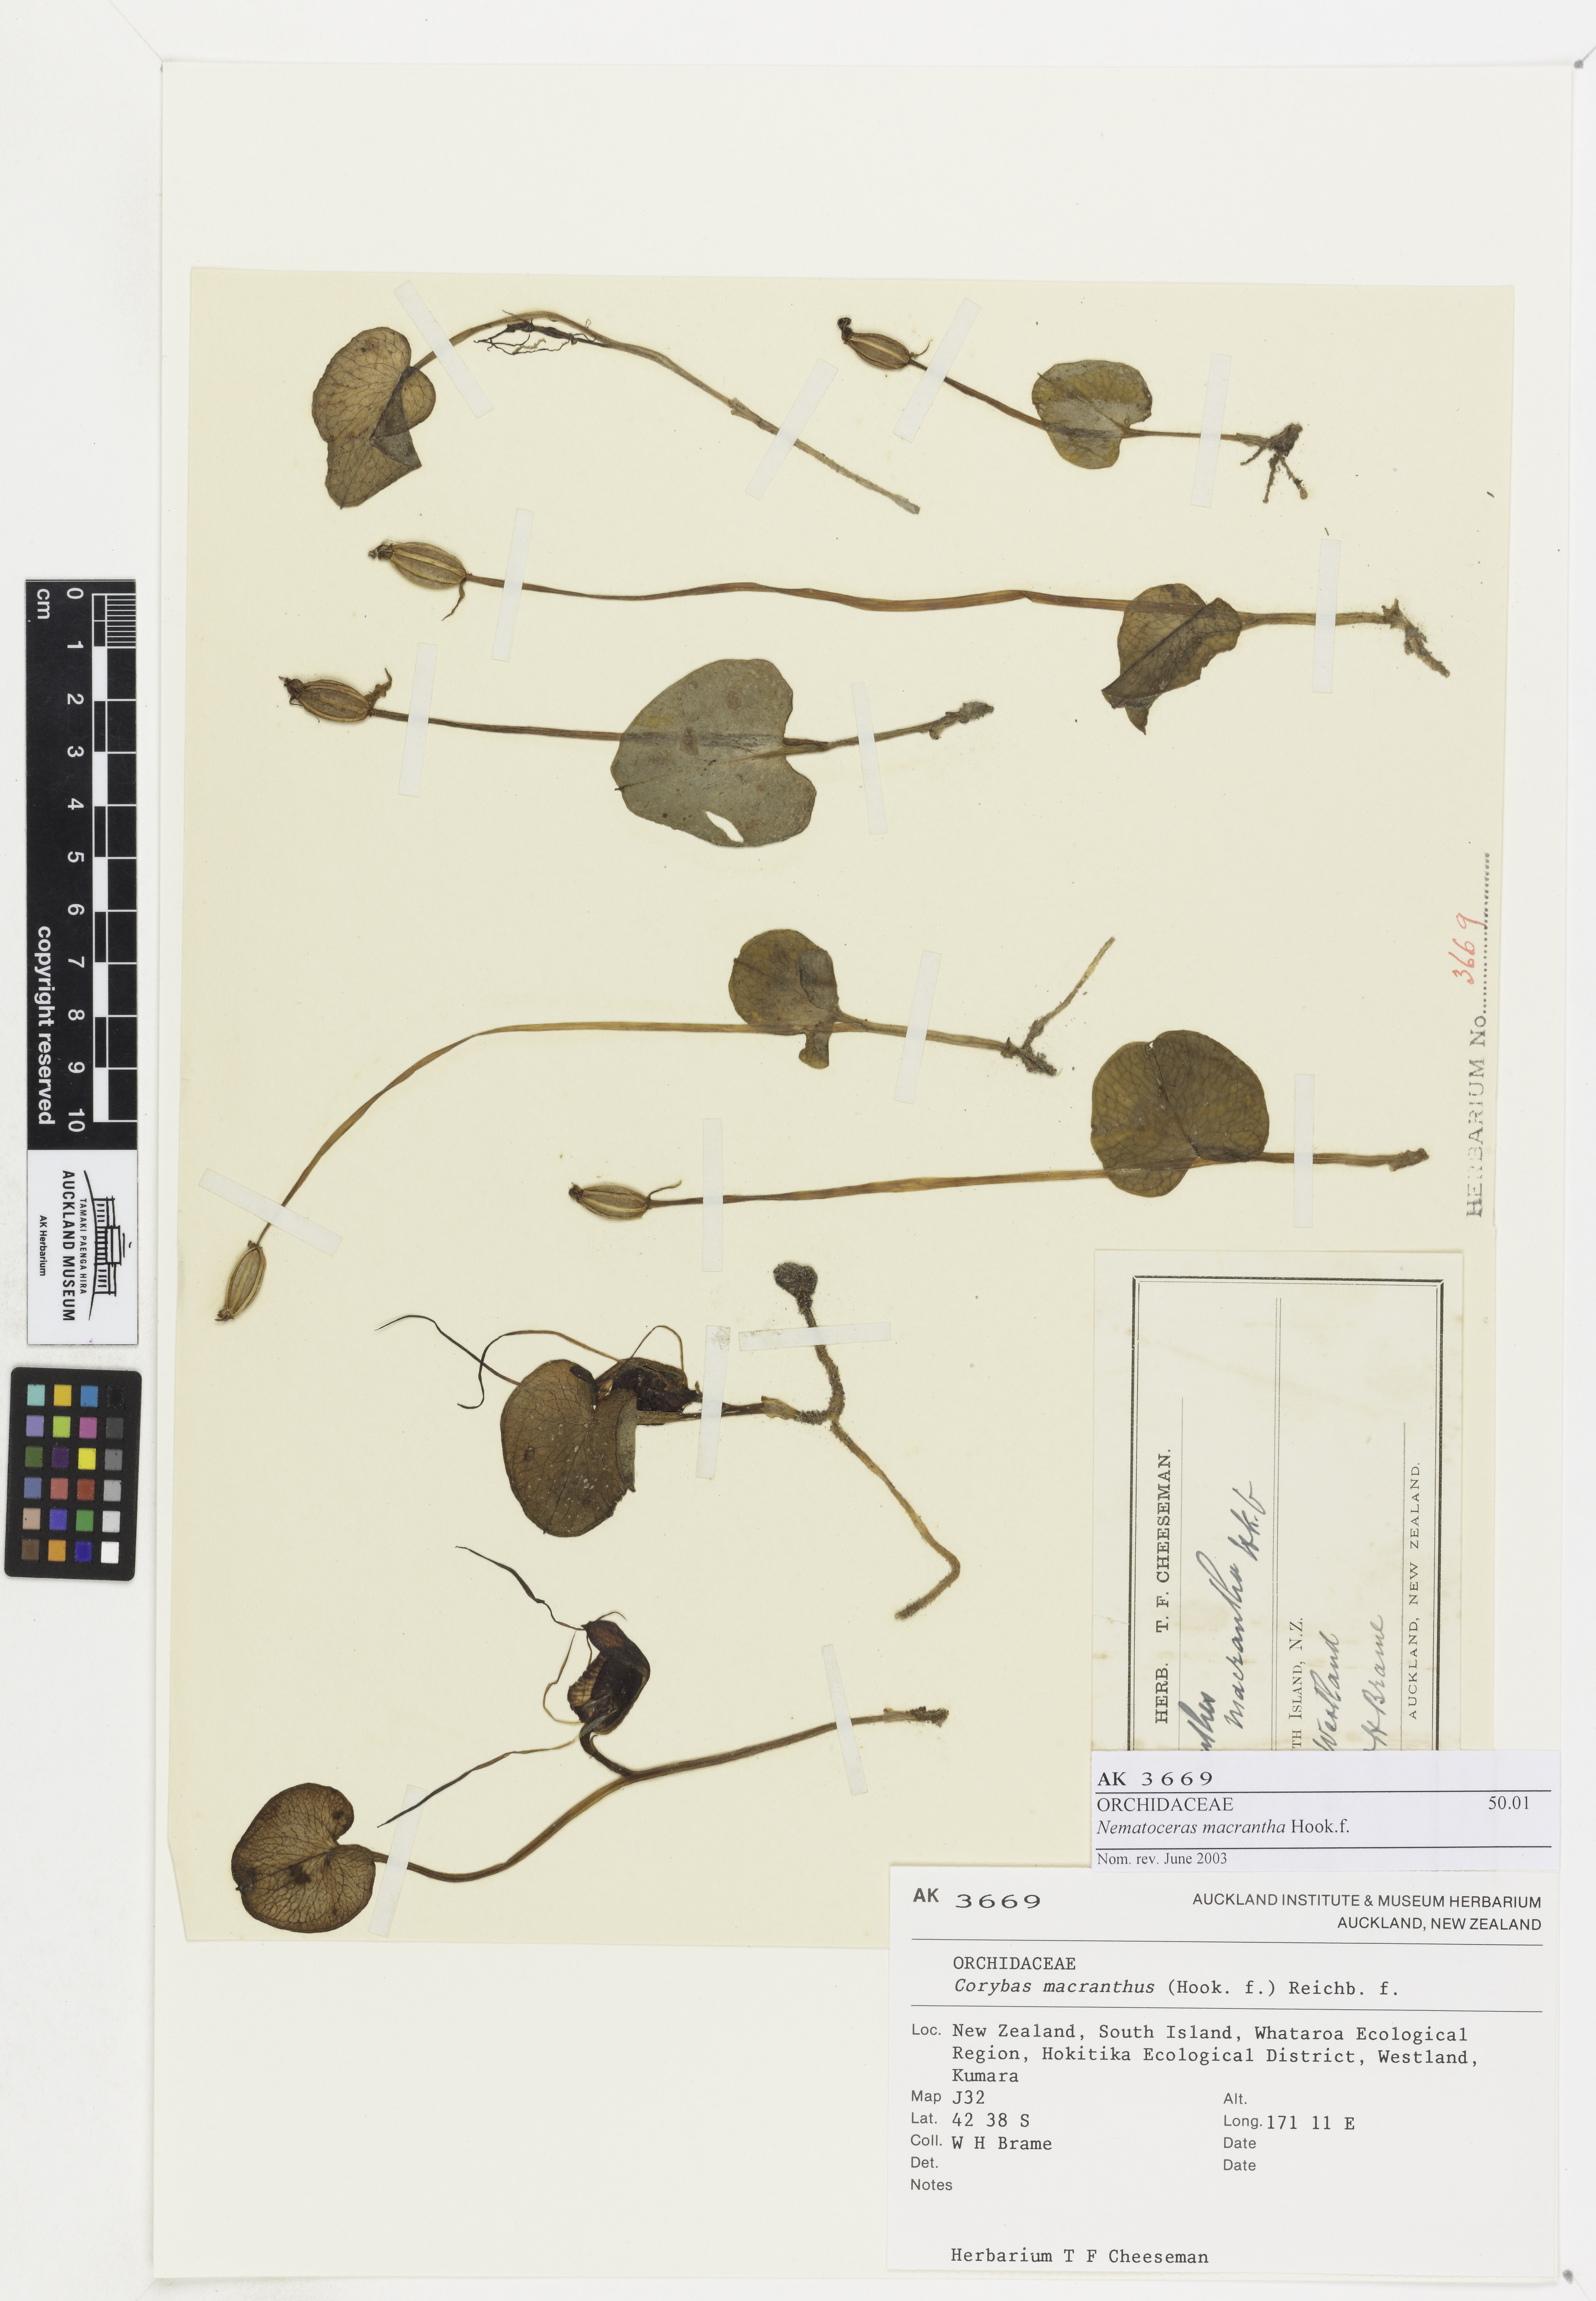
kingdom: Plantae
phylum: Tracheophyta
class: Liliopsida
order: Asparagales
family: Orchidaceae
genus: Corybas
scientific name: Corybas macranthus
